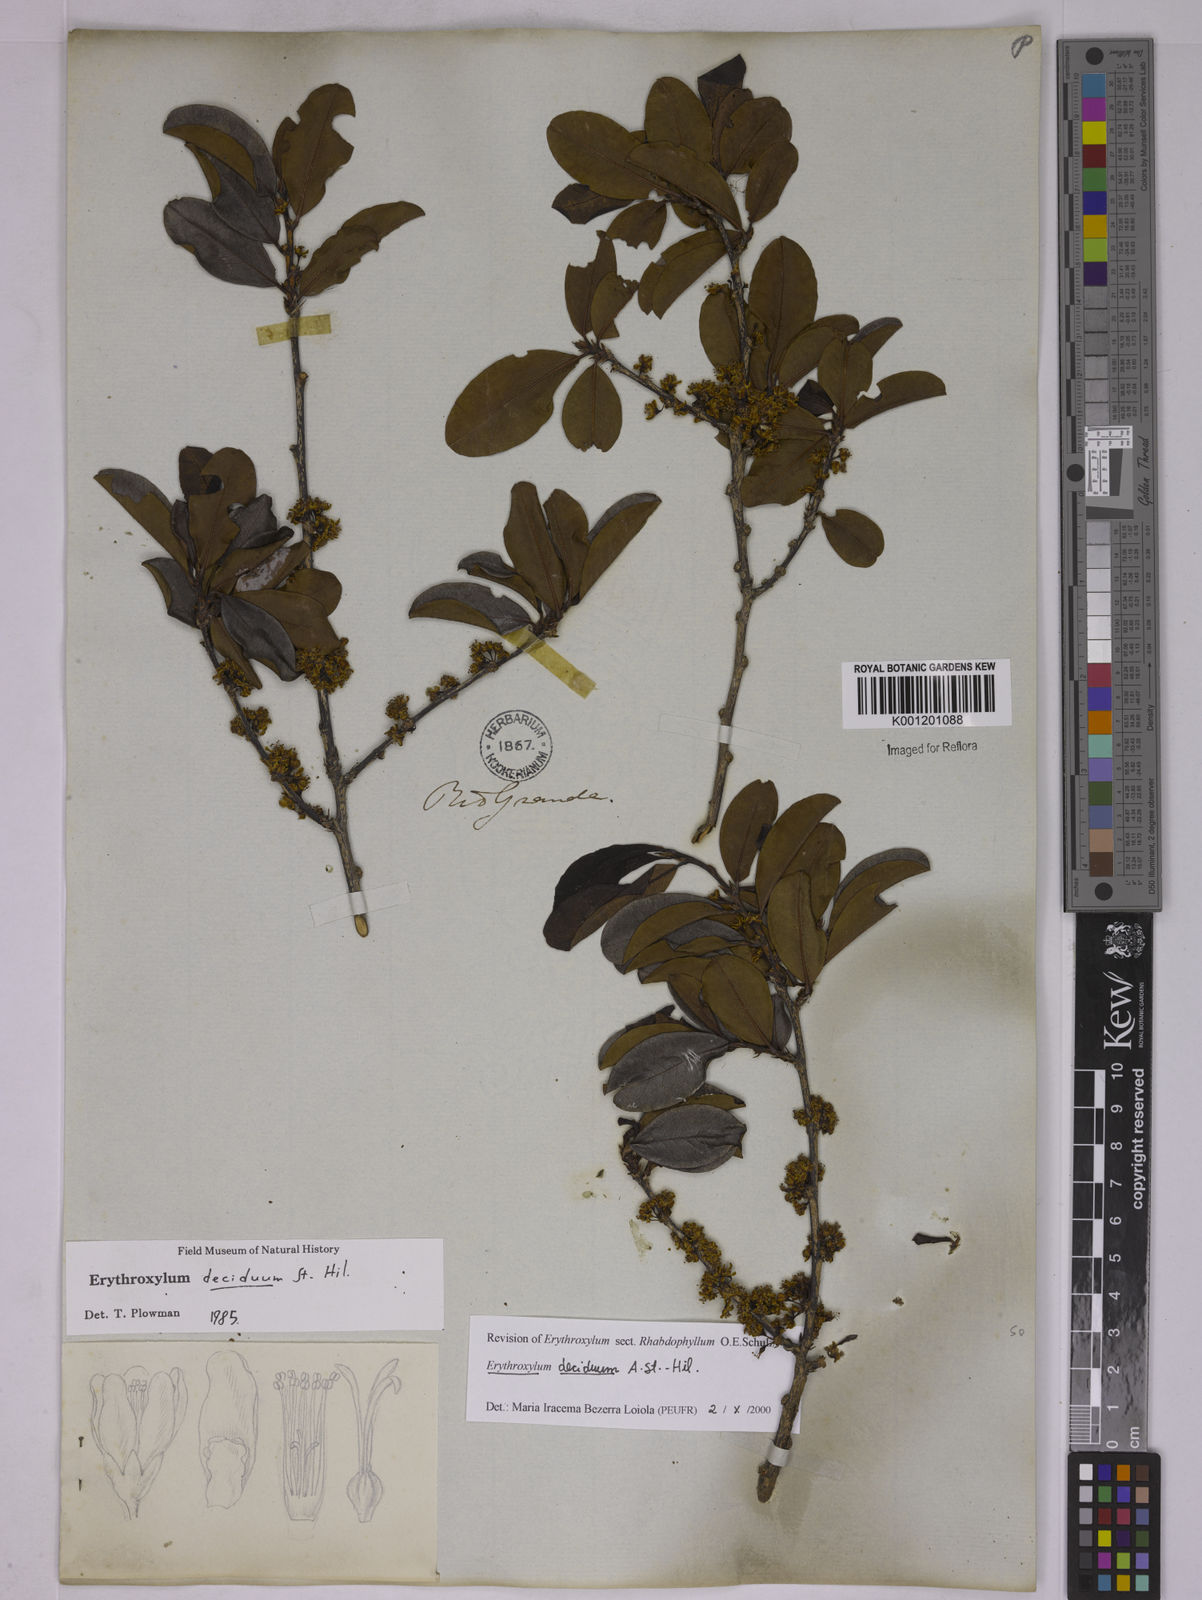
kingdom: Plantae
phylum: Tracheophyta
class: Magnoliopsida
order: Malpighiales
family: Erythroxylaceae
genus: Erythroxylum
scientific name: Erythroxylum deciduum
